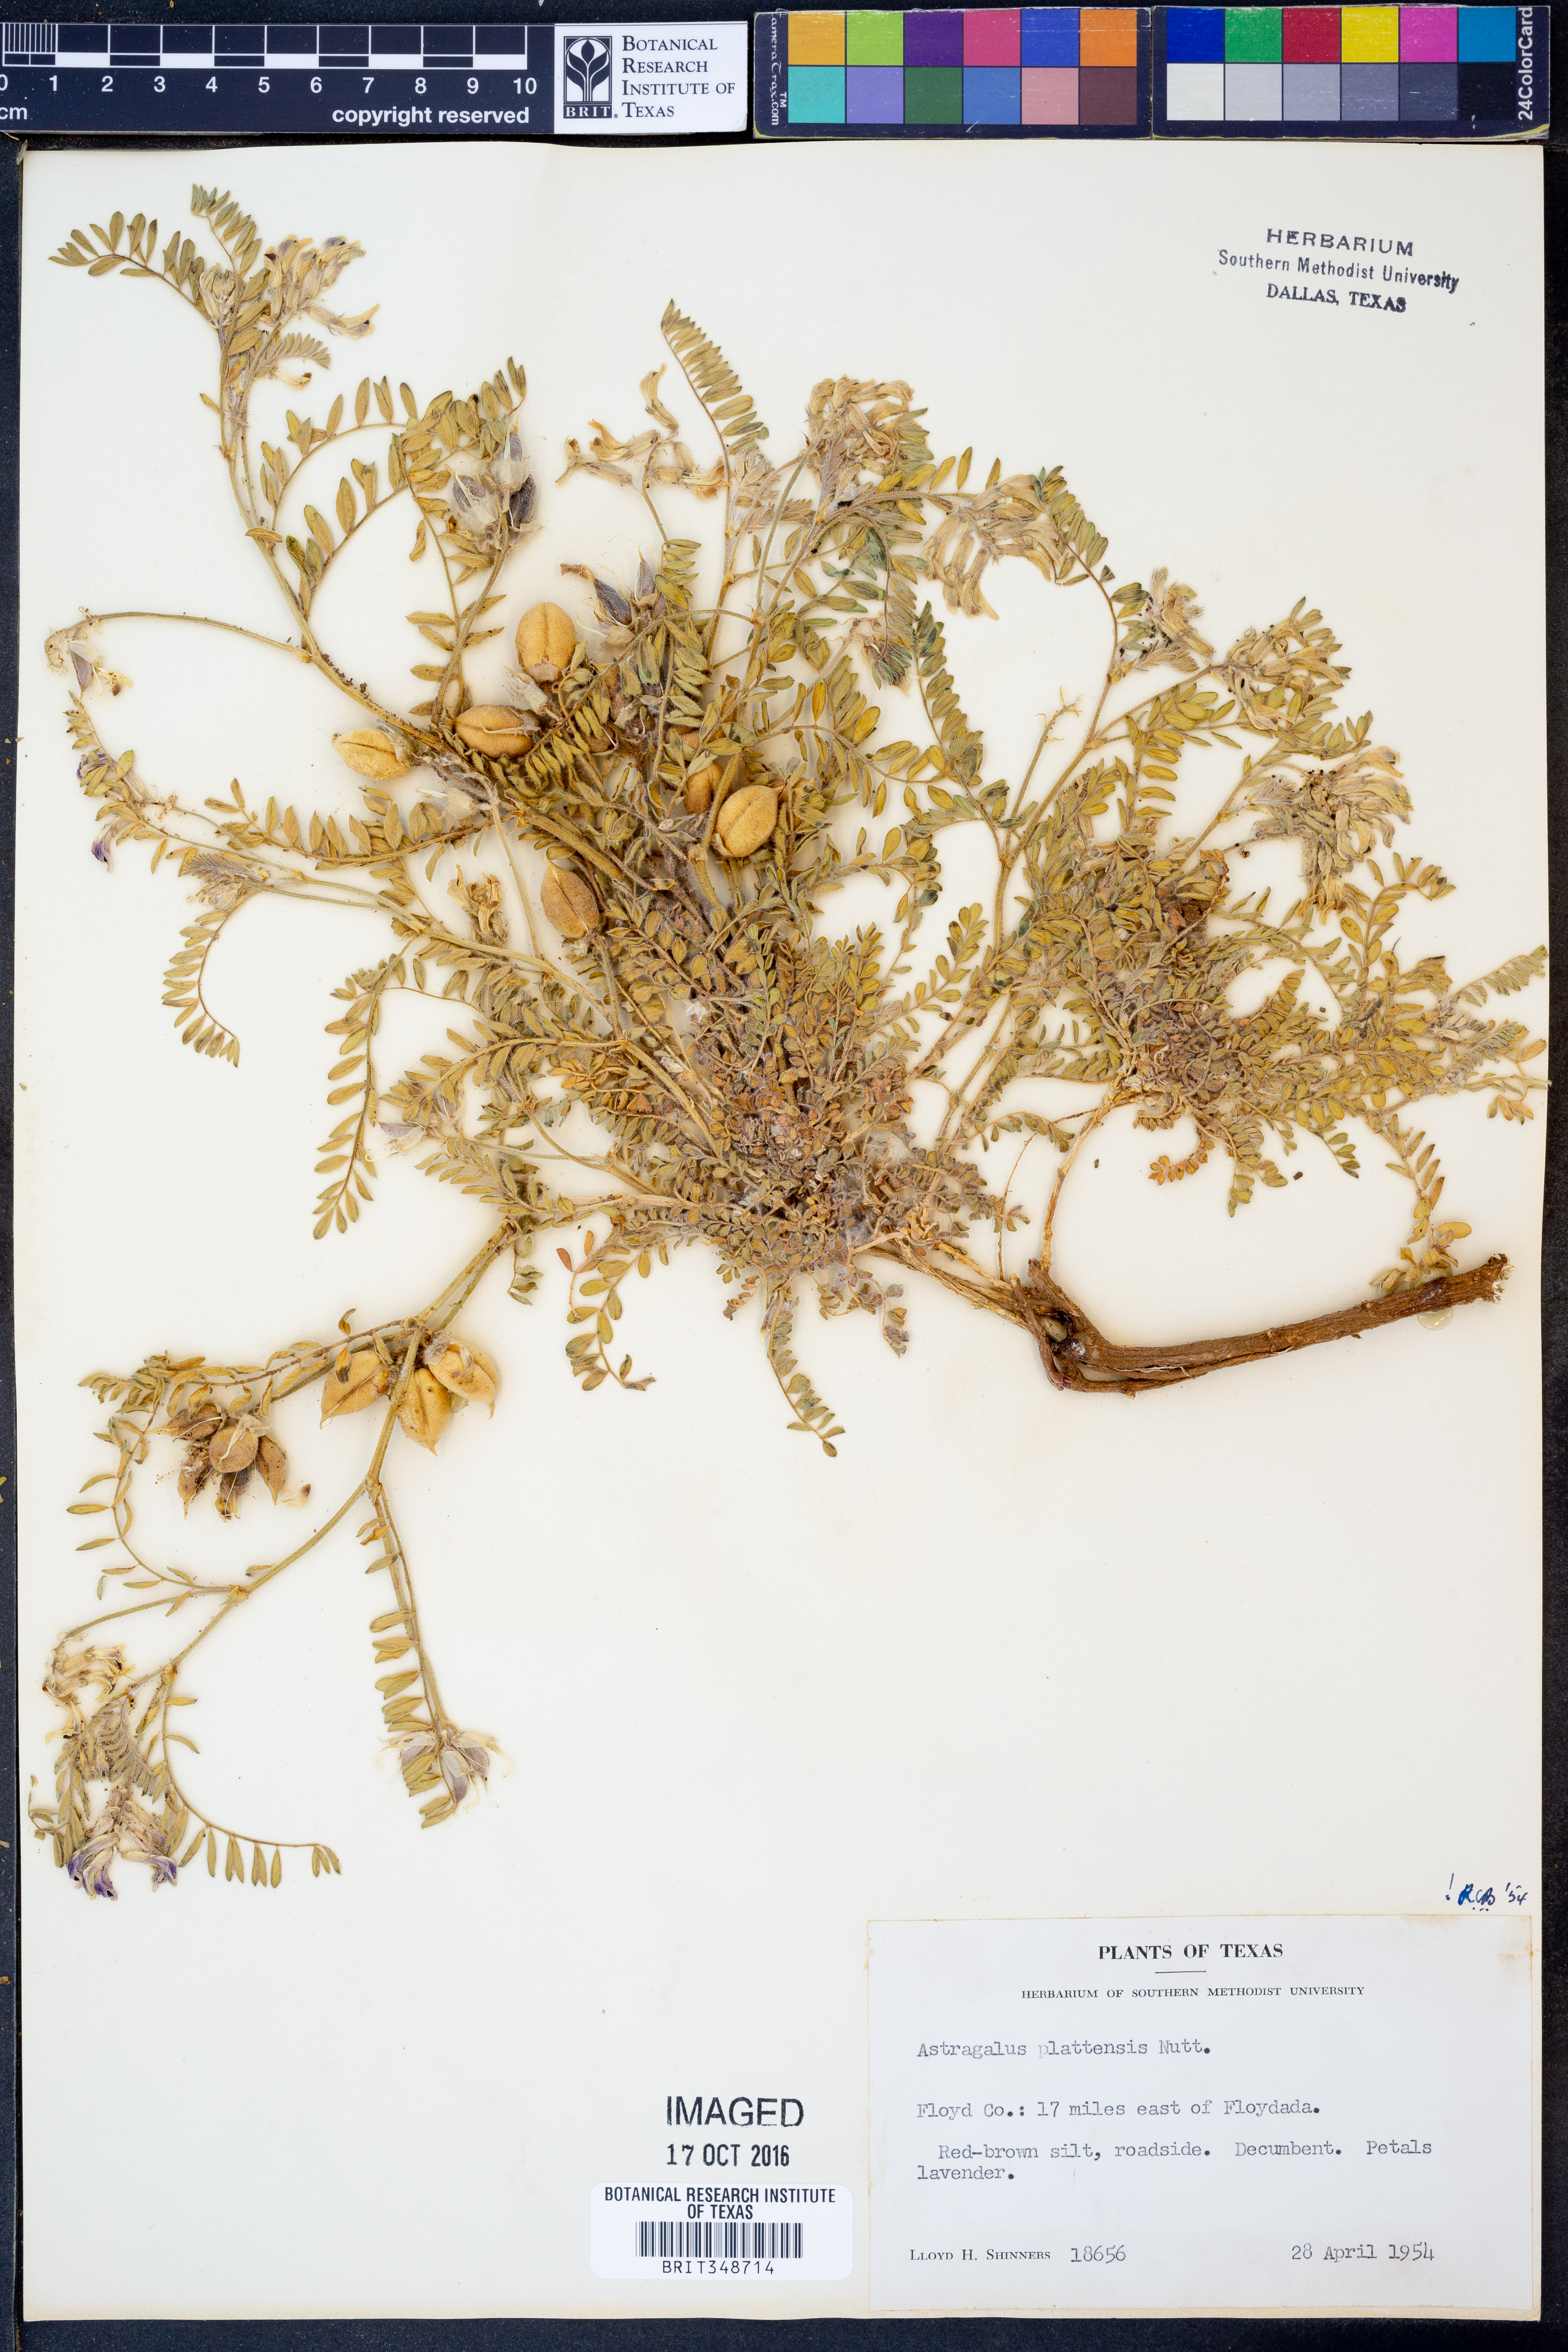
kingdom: Plantae
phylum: Tracheophyta
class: Magnoliopsida
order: Fabales
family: Fabaceae
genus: Astragalus
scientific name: Astragalus plattensis
